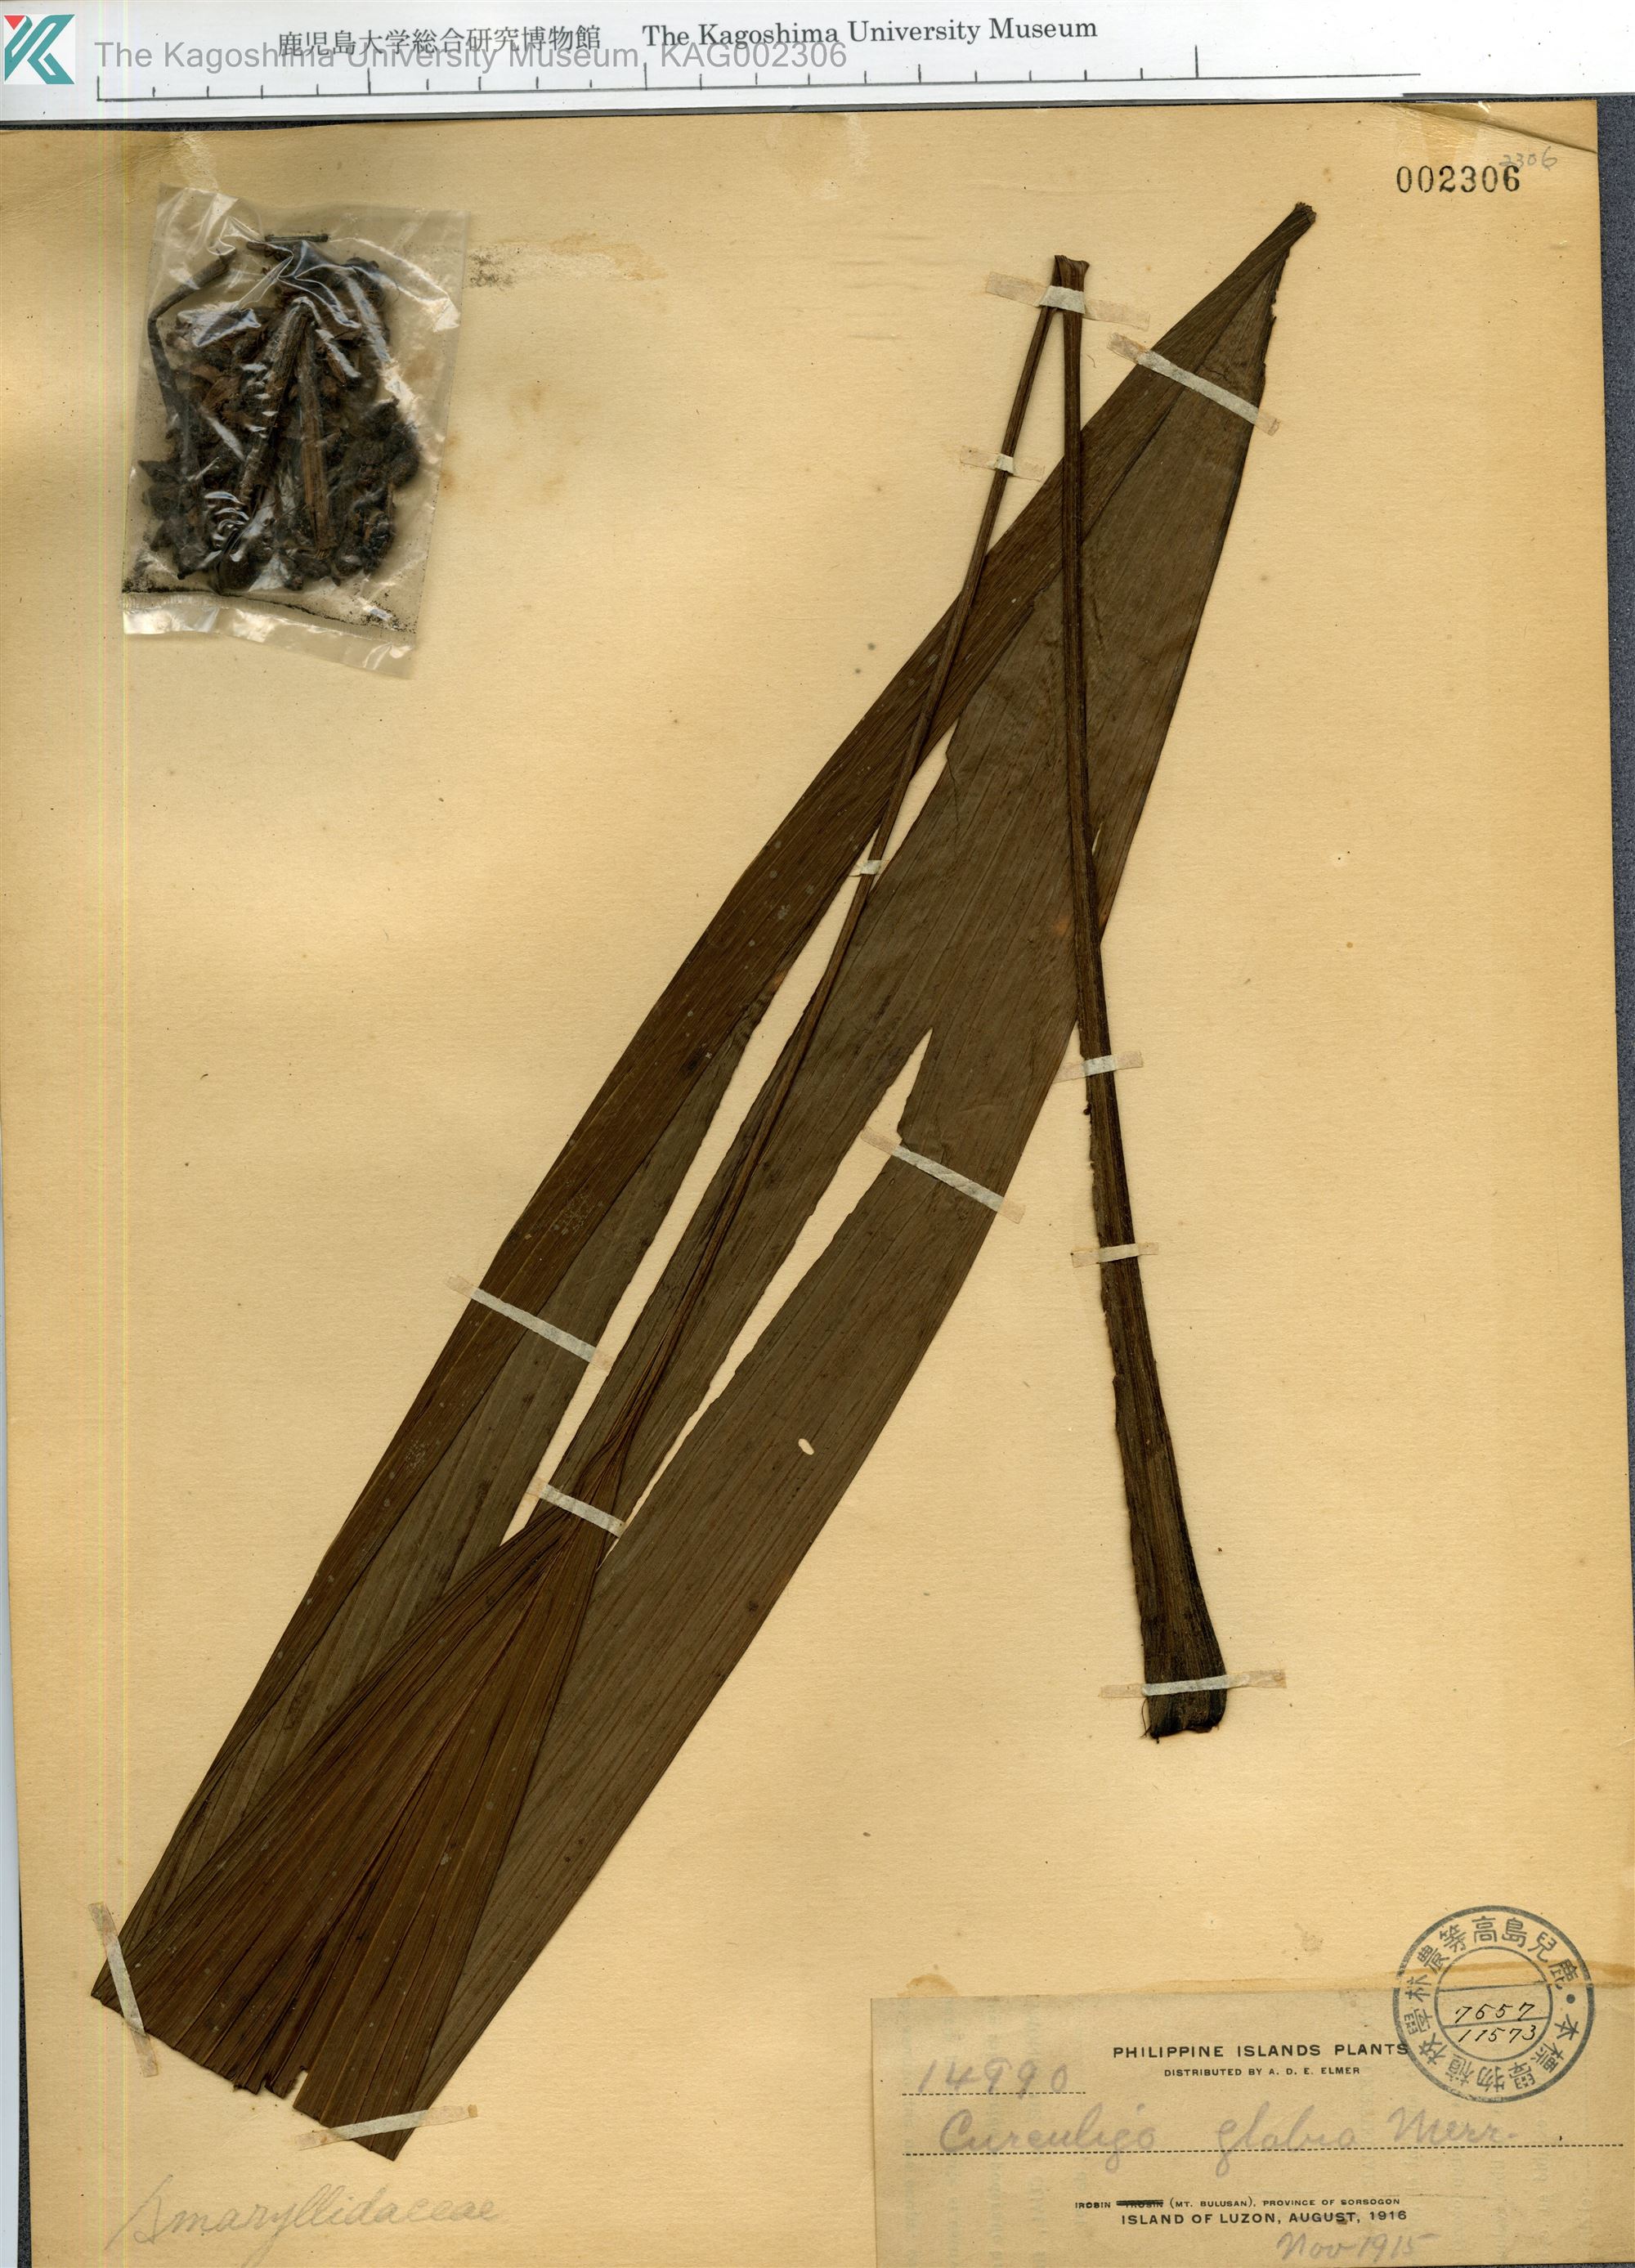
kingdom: Plantae
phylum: Tracheophyta
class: Liliopsida
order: Asparagales
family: Hypoxidaceae
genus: Curculigo
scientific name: Curculigo
